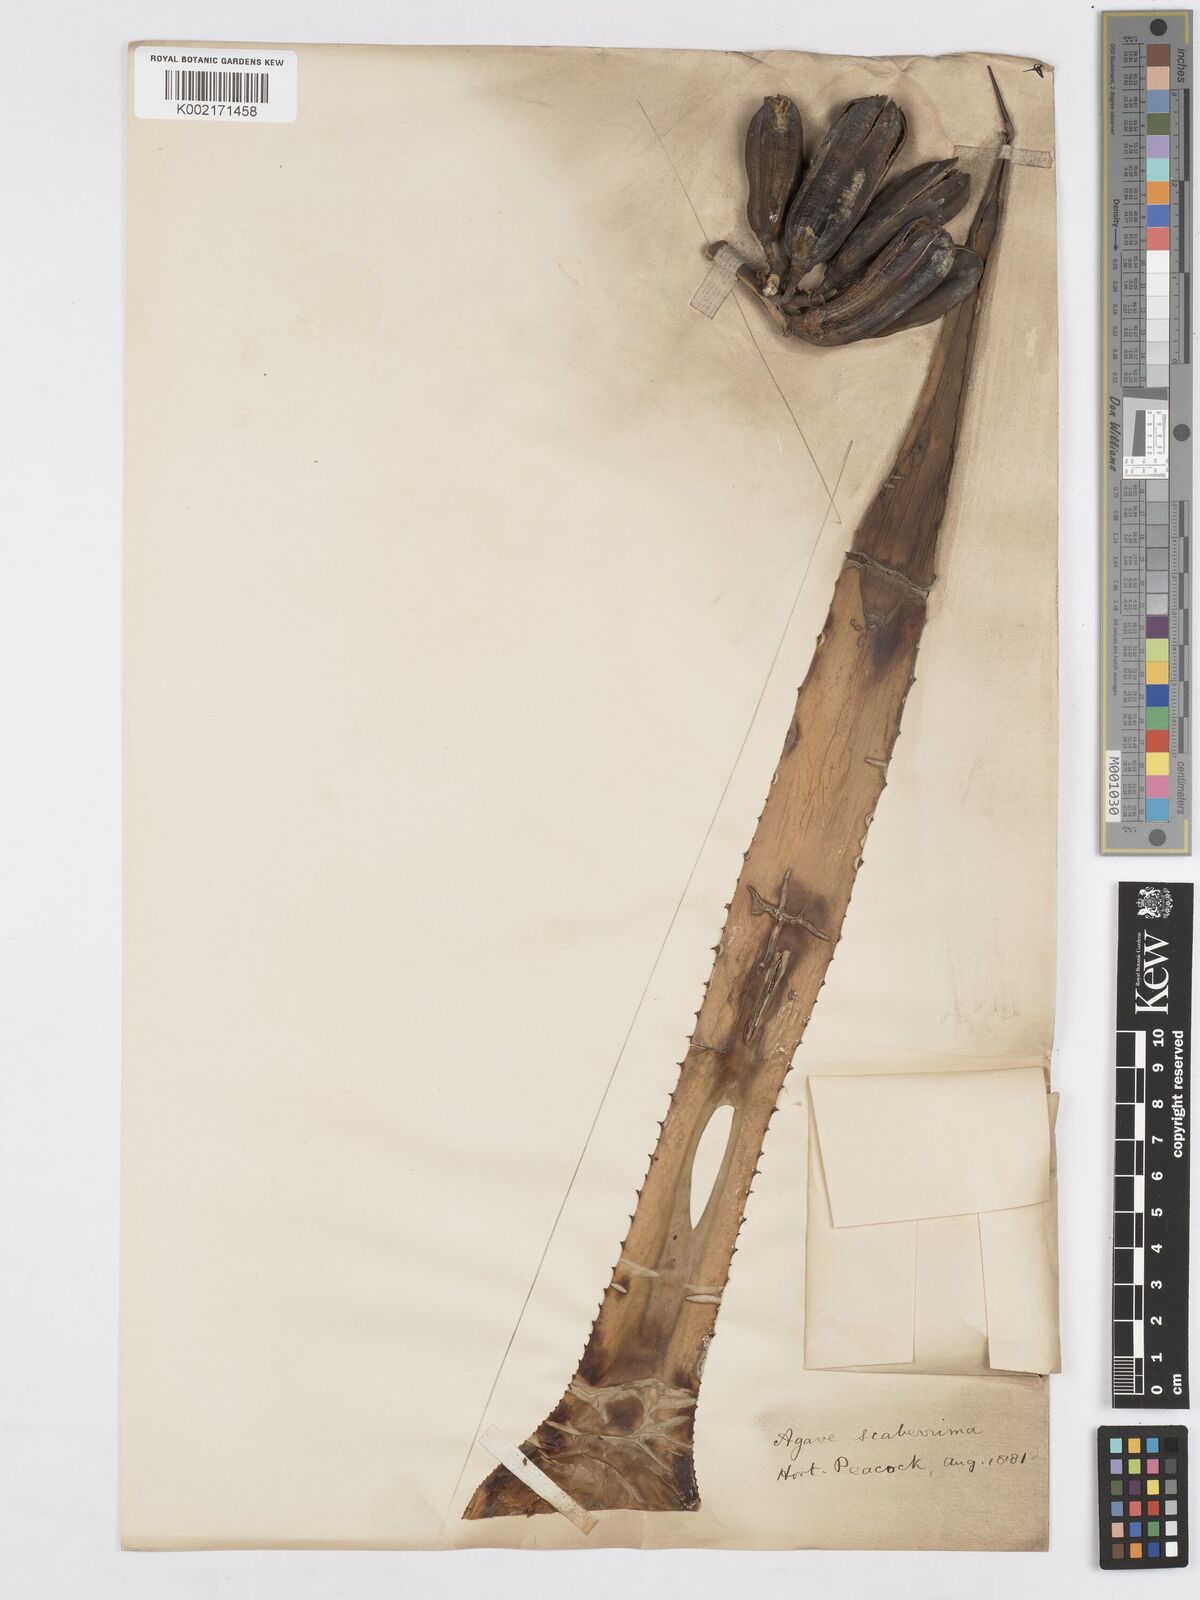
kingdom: Plantae
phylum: Tracheophyta
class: Liliopsida
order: Asparagales
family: Asparagaceae
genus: Agave
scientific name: Agave pringlei
